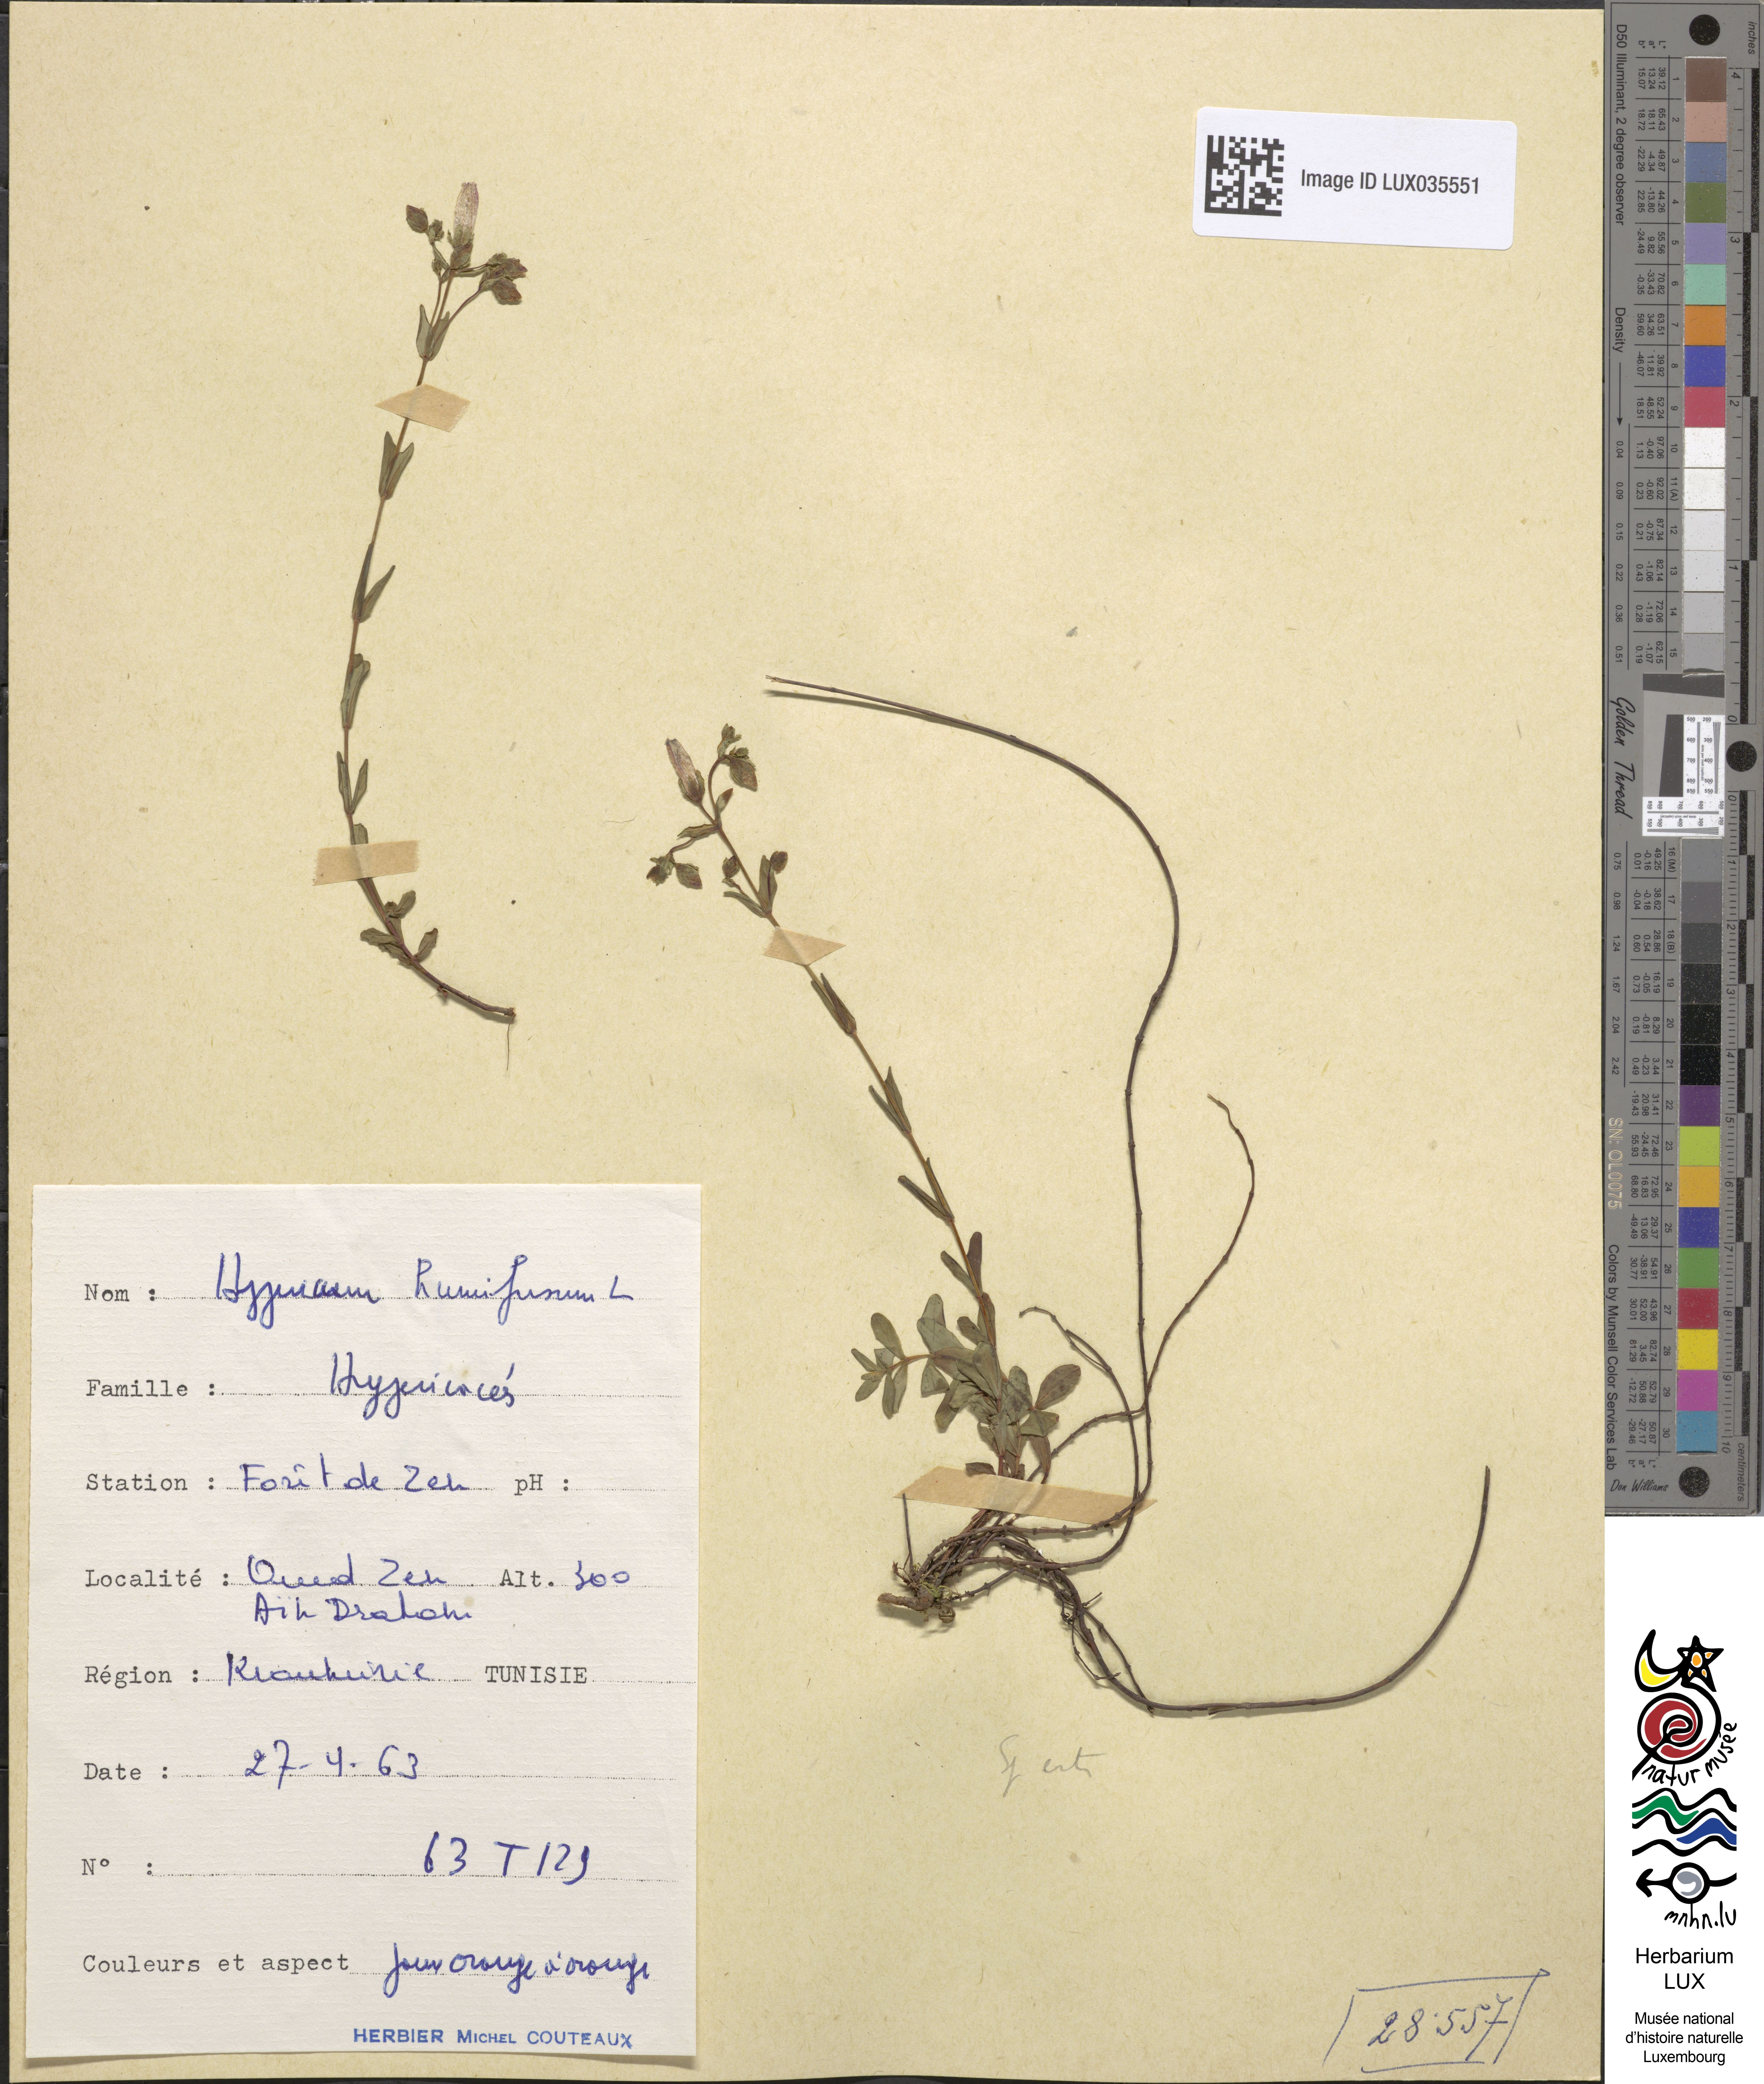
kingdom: Plantae
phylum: Tracheophyta
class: Magnoliopsida
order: Malpighiales
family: Hypericaceae
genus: Hypericum
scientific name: Hypericum humifusum
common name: Trailing st. john's-wort
